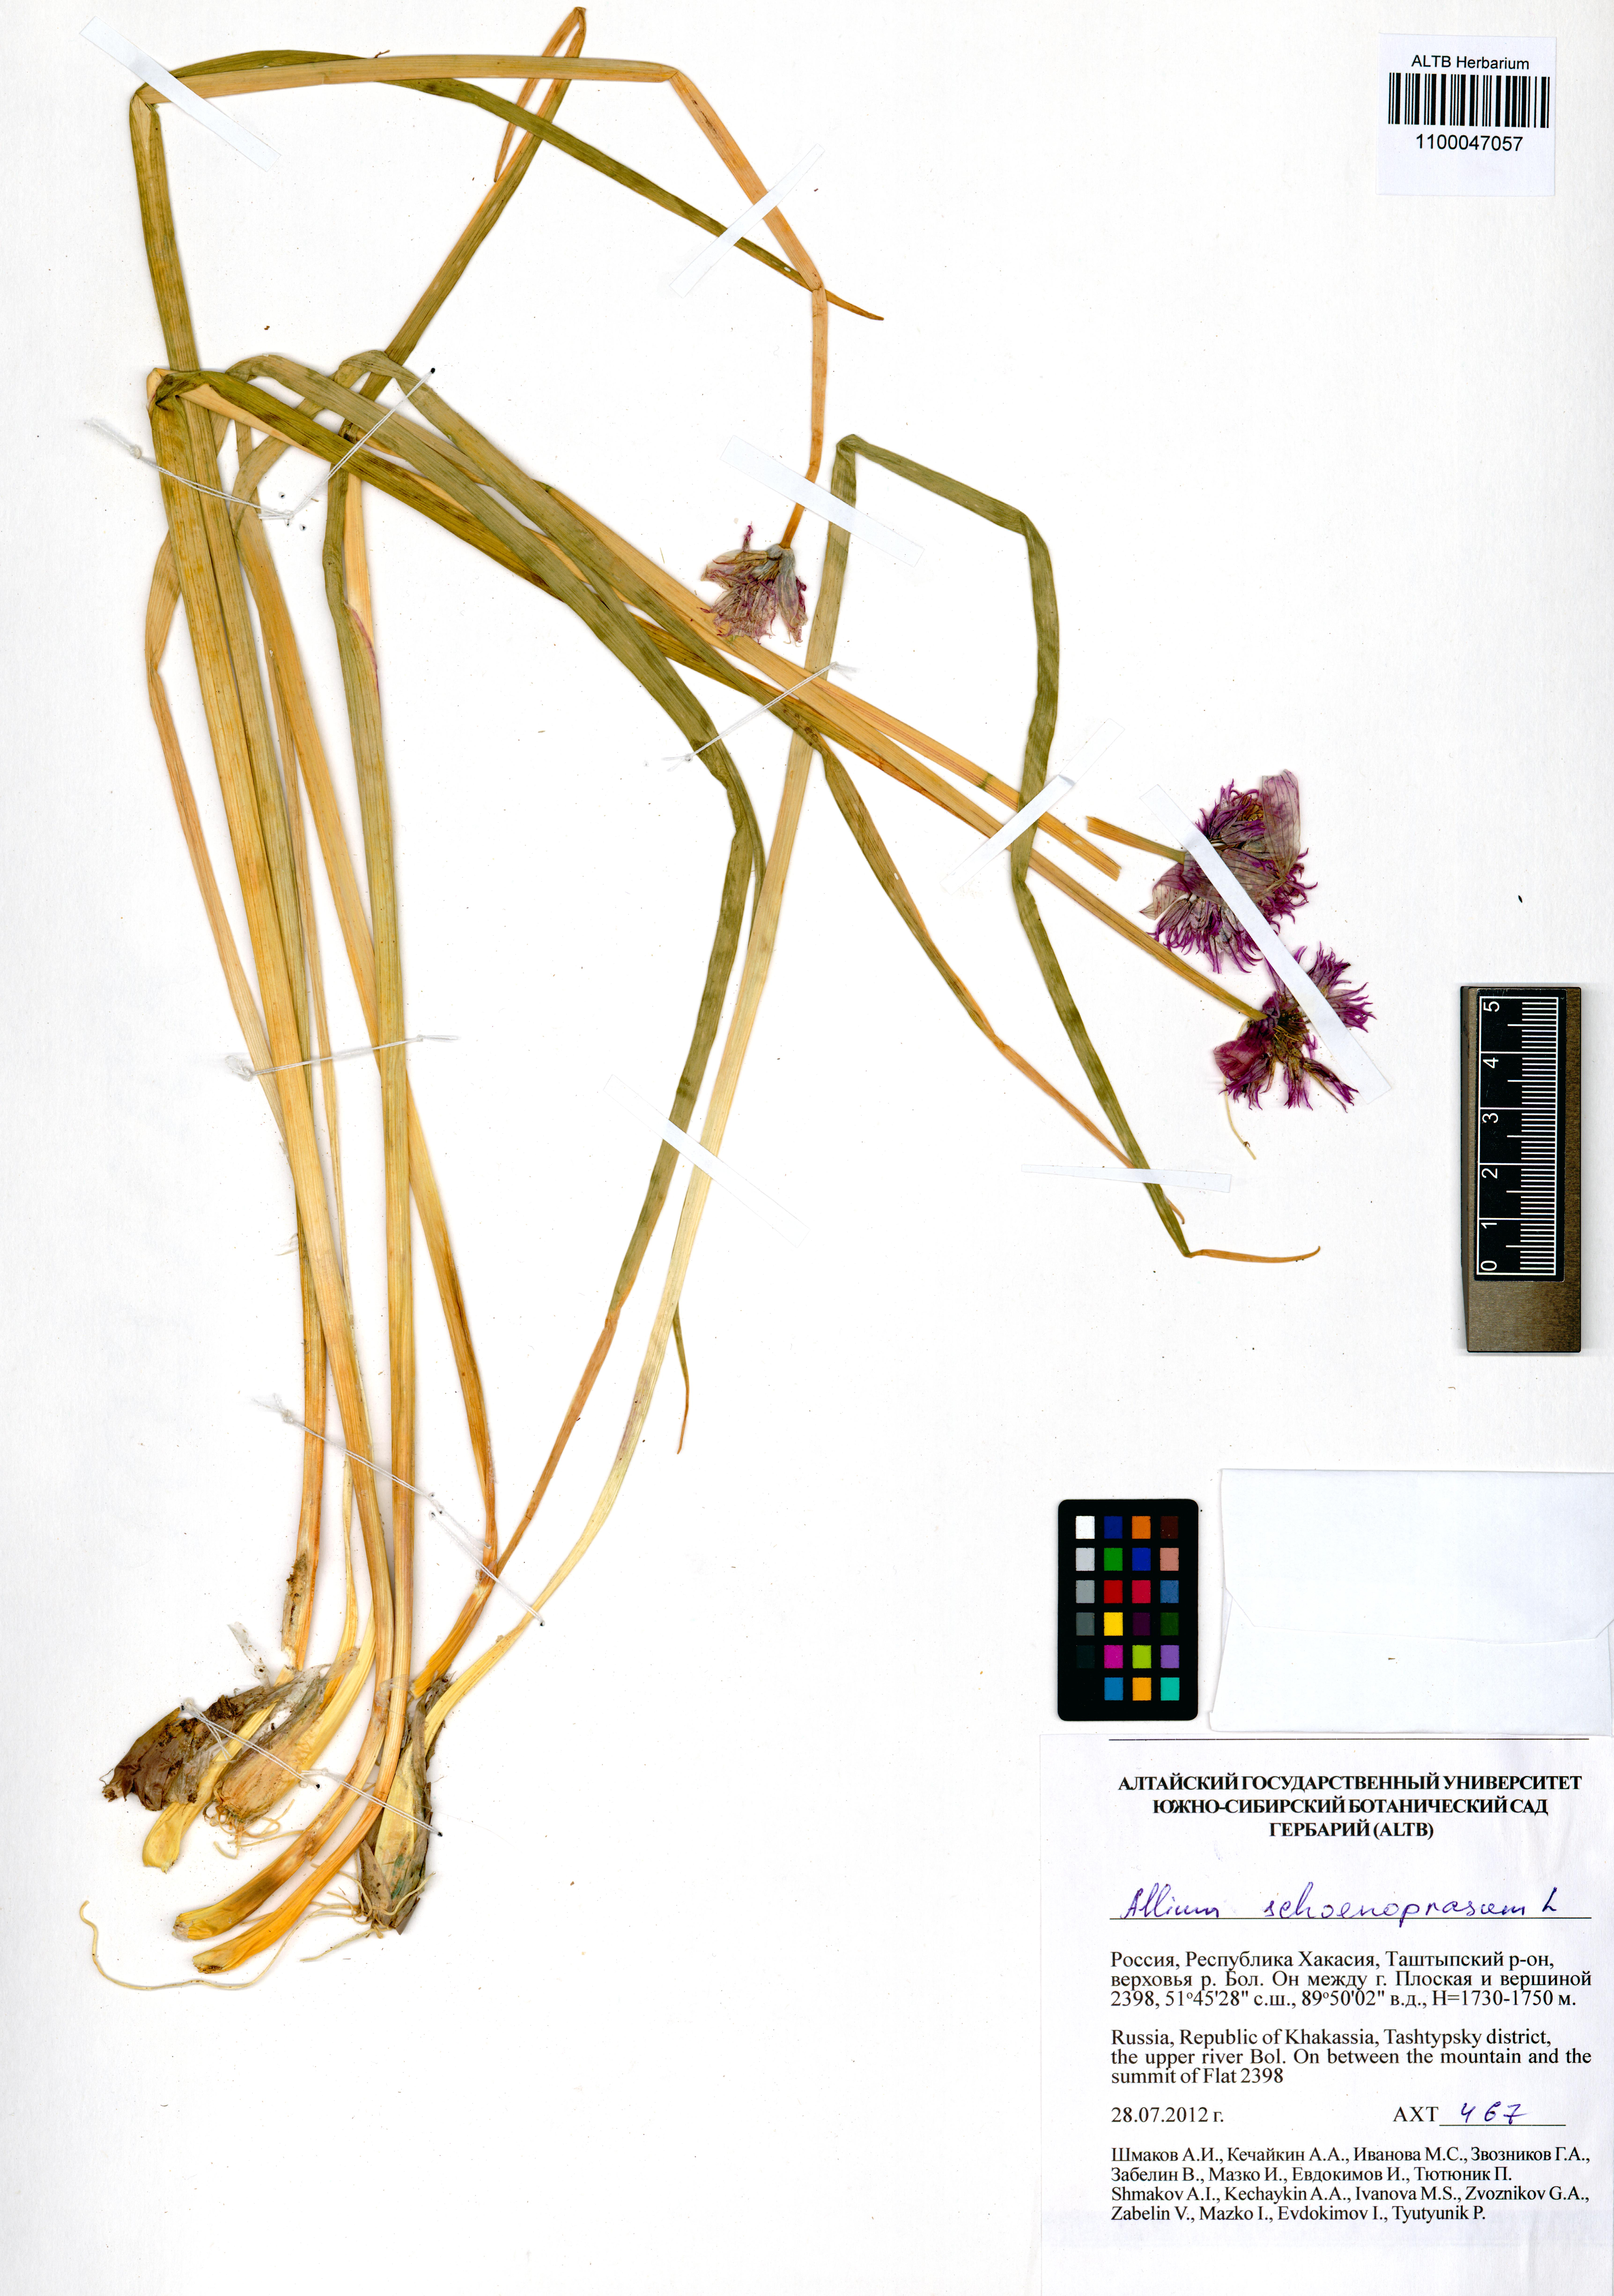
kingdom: Plantae
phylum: Tracheophyta
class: Liliopsida
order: Asparagales
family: Amaryllidaceae
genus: Allium
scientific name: Allium schoenoprasum
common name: Chives
